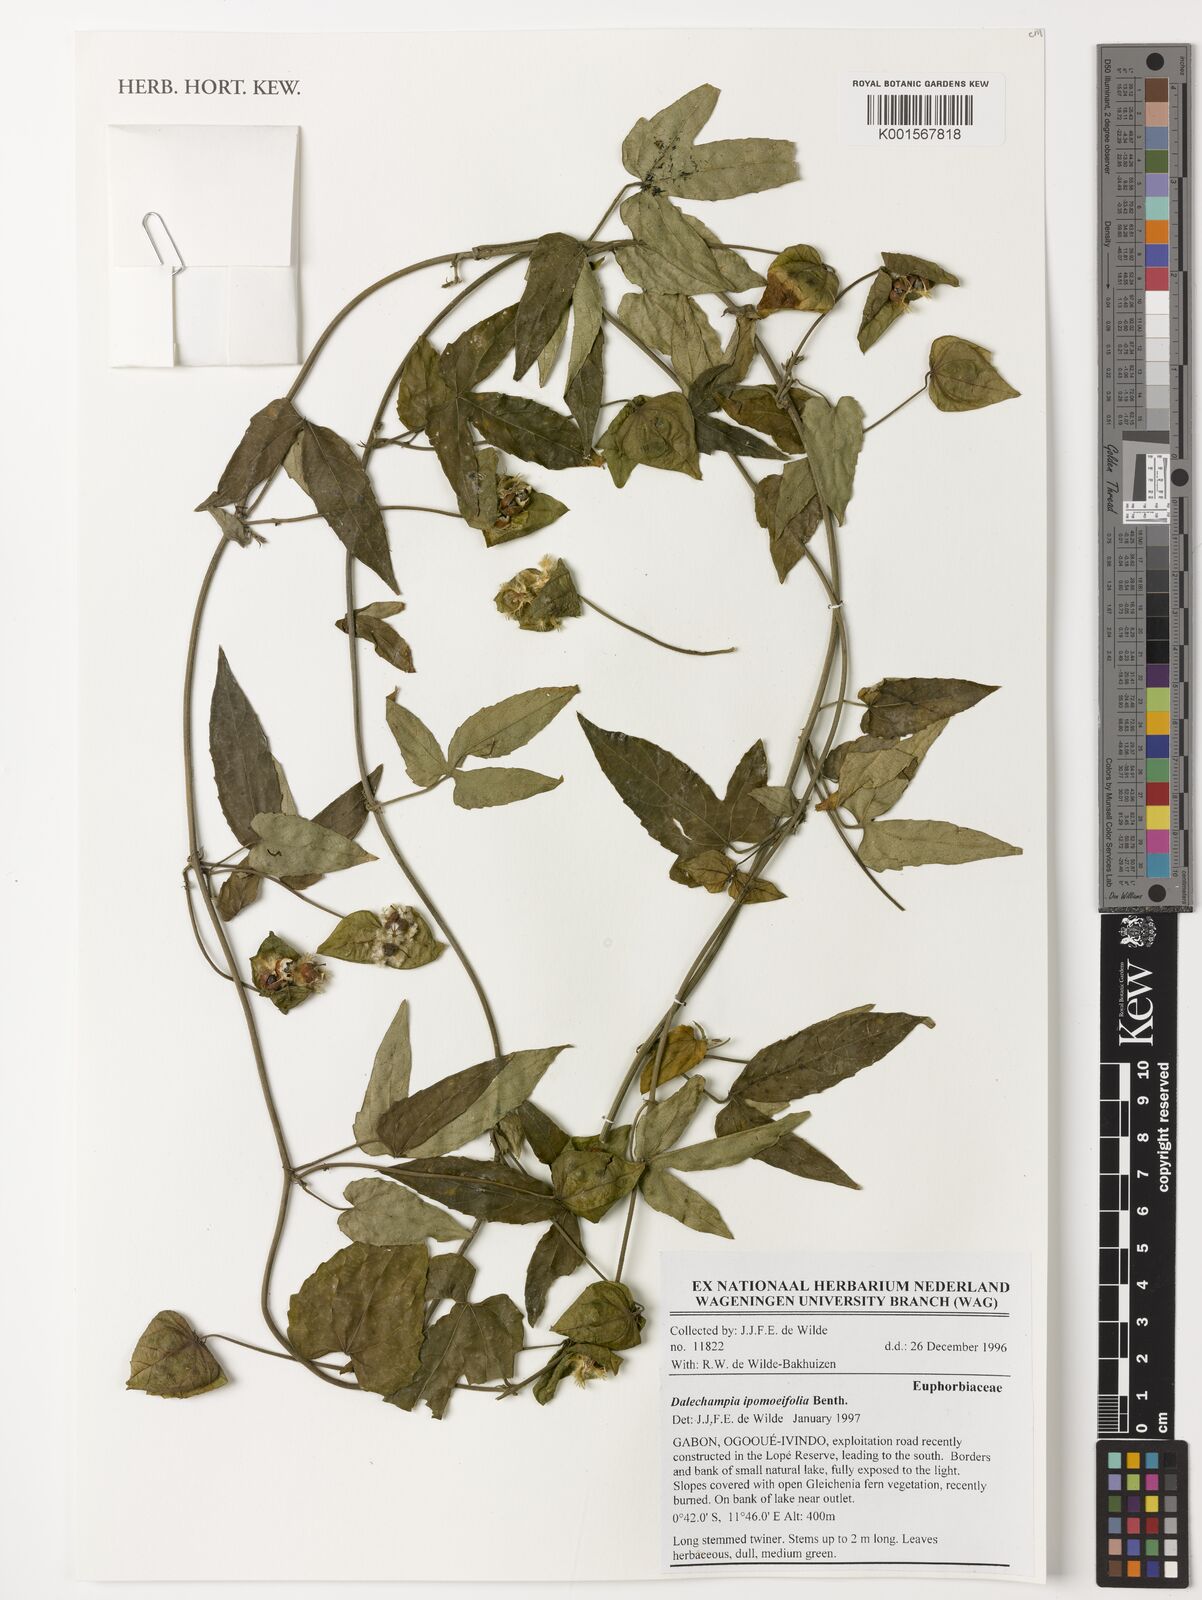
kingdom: Plantae
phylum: Tracheophyta
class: Magnoliopsida
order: Malpighiales
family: Euphorbiaceae
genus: Dalechampia
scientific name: Dalechampia ipomoeifolia
